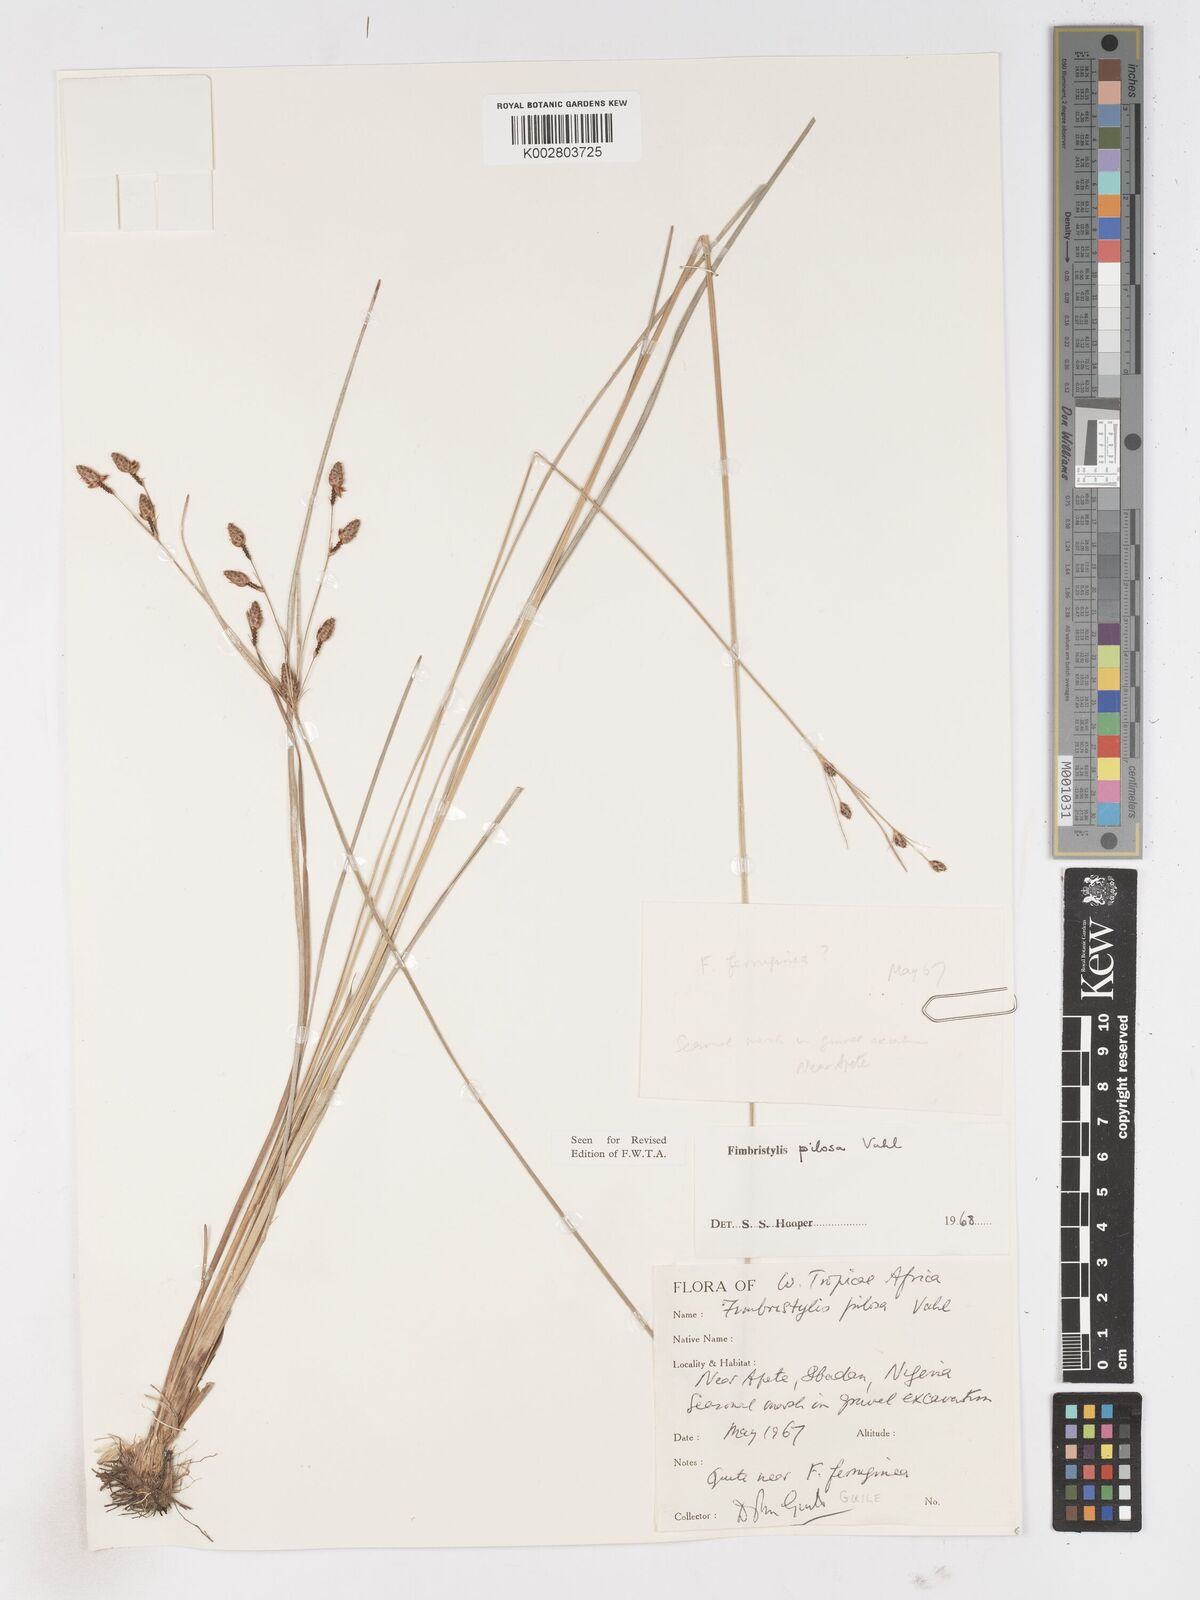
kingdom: Plantae
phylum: Tracheophyta
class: Liliopsida
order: Poales
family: Cyperaceae
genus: Fimbristylis
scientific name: Fimbristylis pilosa
